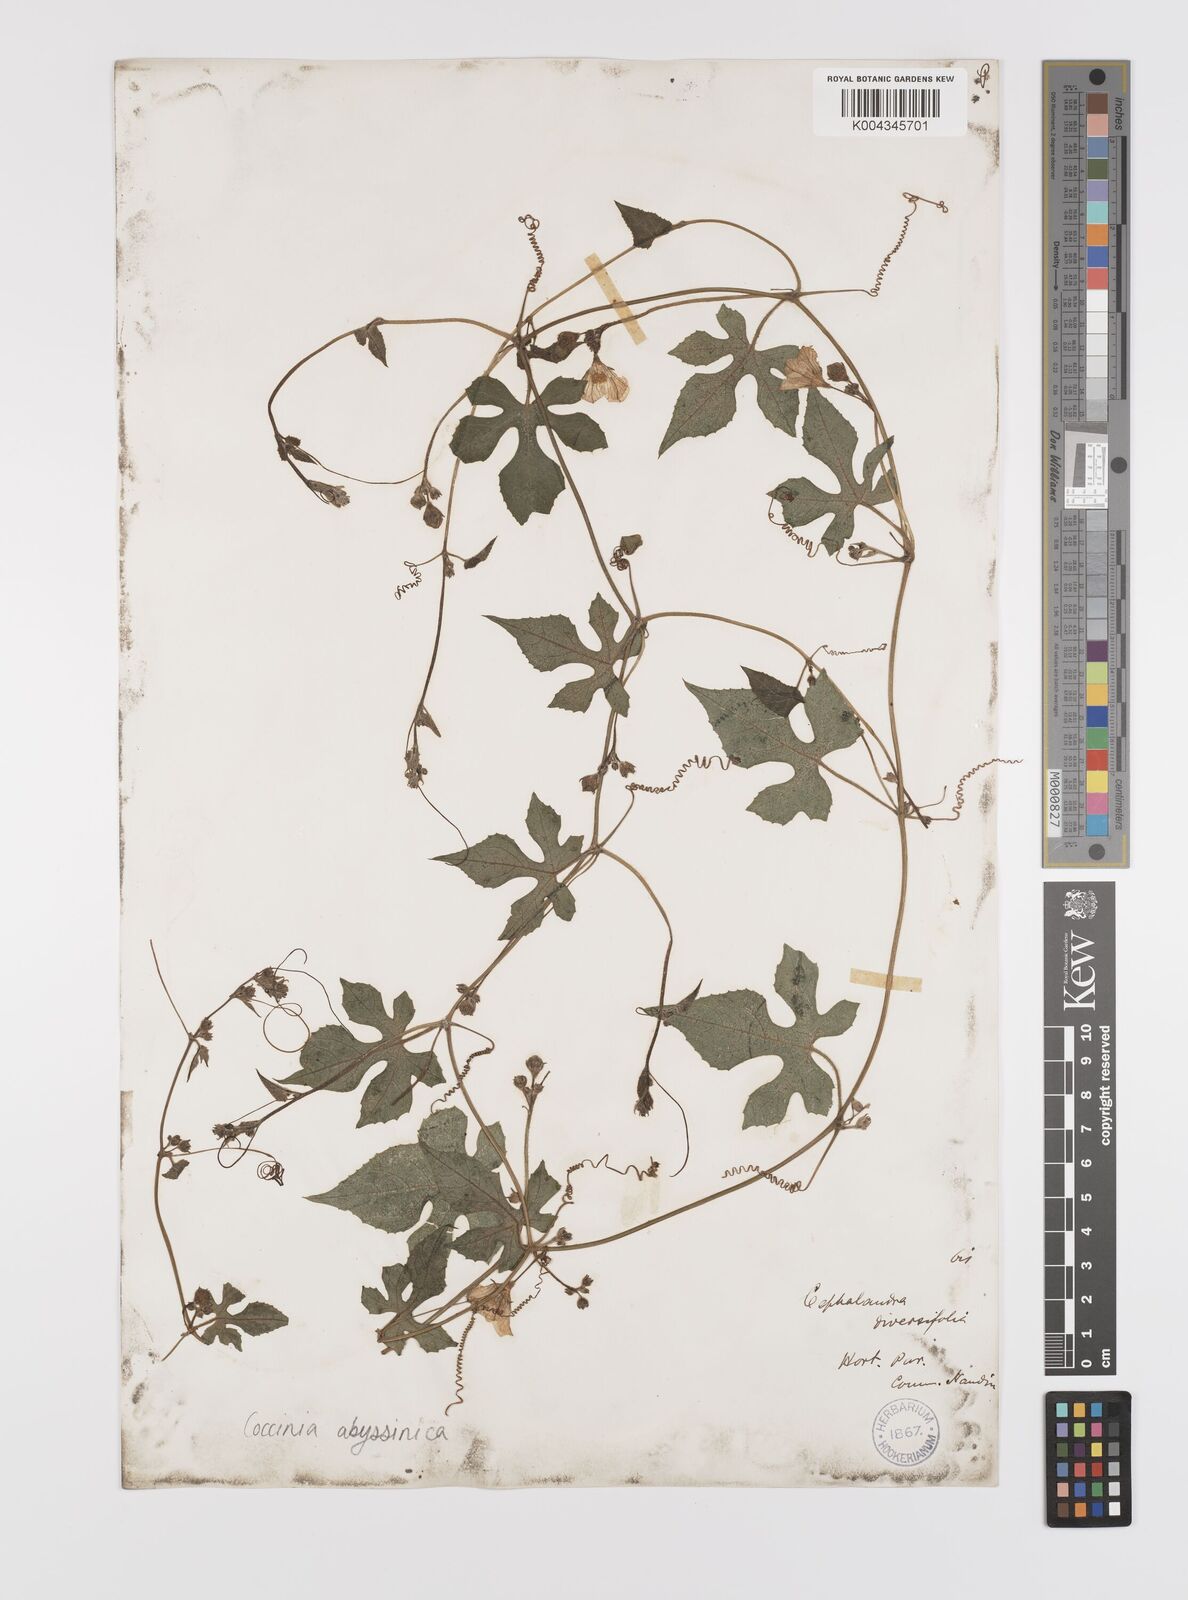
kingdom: Plantae
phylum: Tracheophyta
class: Magnoliopsida
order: Cucurbitales
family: Cucurbitaceae
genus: Coccinia
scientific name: Coccinia abyssinica
